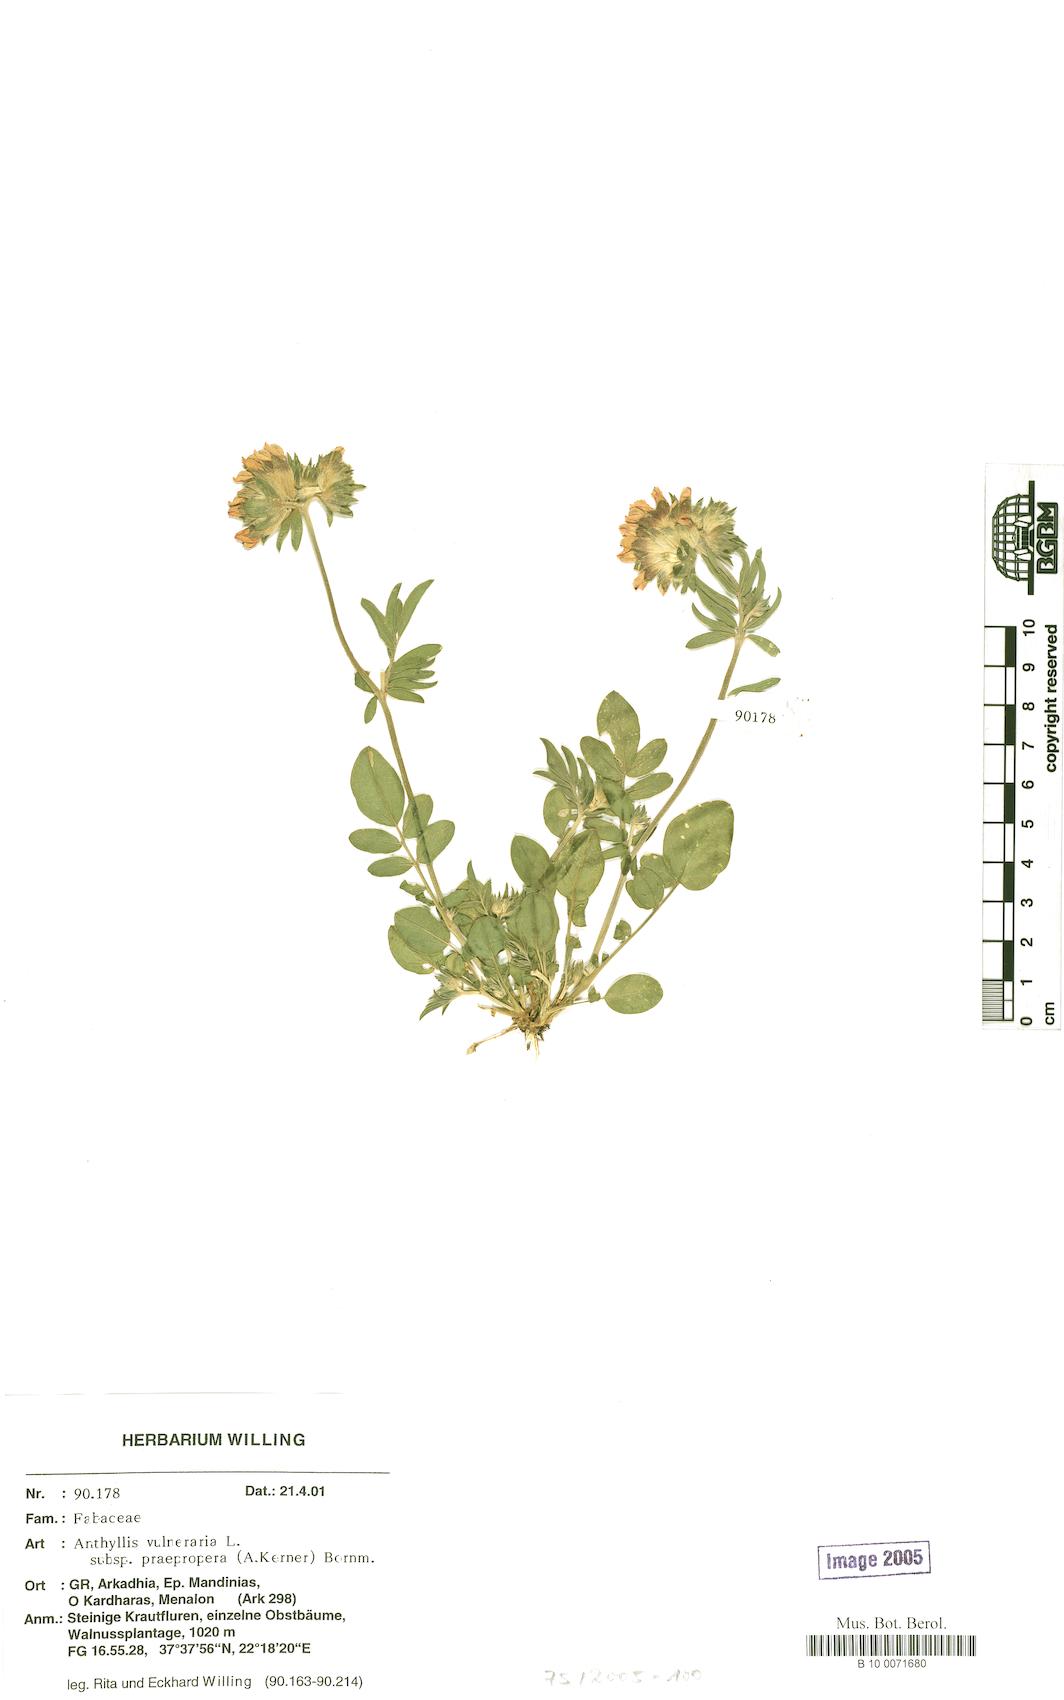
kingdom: Plantae
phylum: Tracheophyta
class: Magnoliopsida
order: Fabales
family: Fabaceae
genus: Anthyllis
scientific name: Anthyllis vulneraria
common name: Kidney vetch
